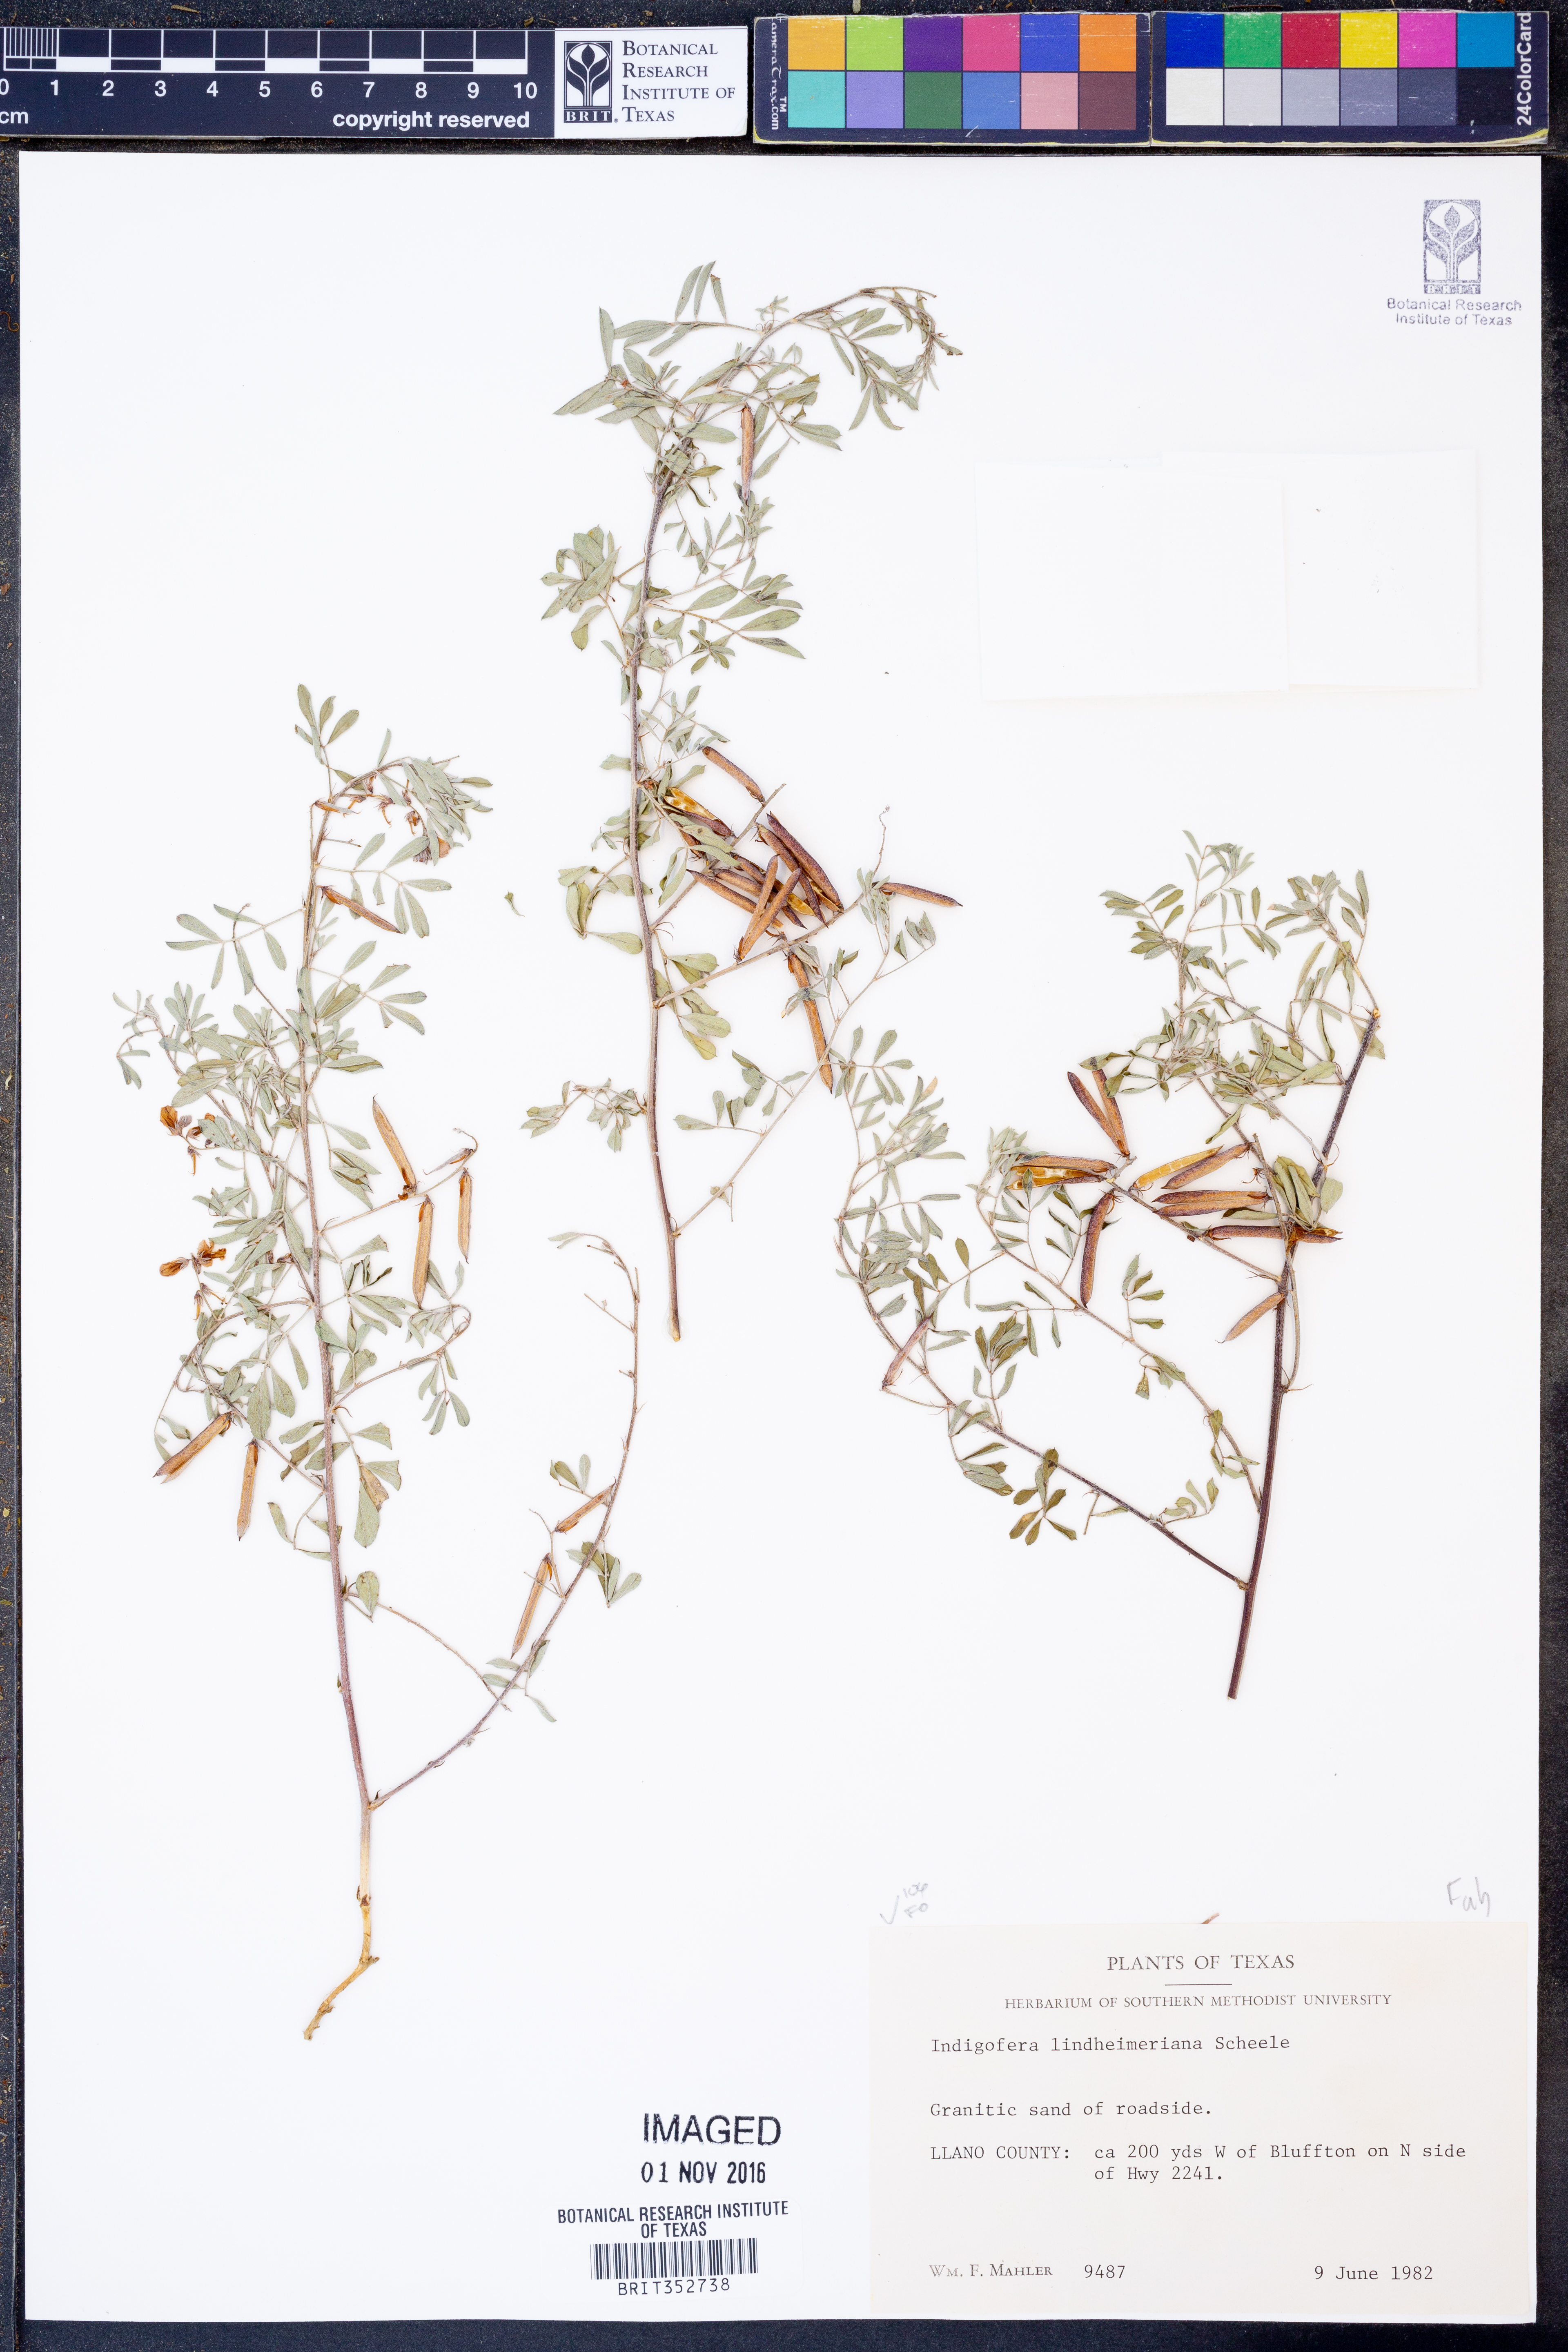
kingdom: Plantae
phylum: Tracheophyta
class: Magnoliopsida
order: Fabales
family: Fabaceae
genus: Indigofera
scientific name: Indigofera lindheimeriana
